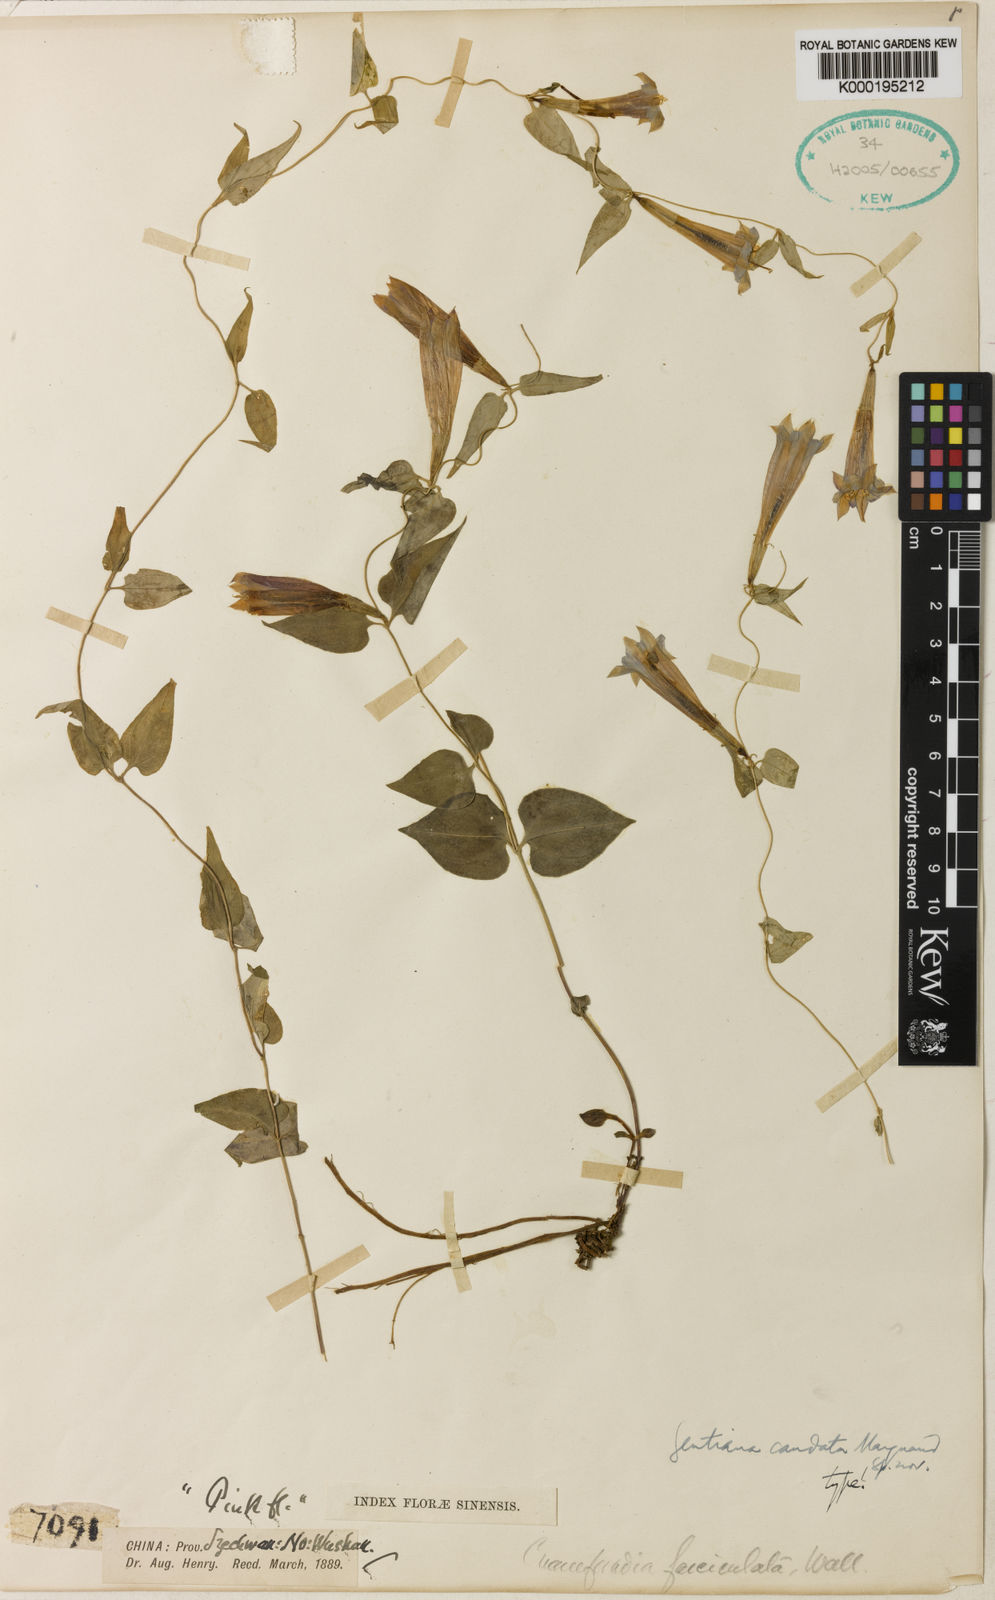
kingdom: Plantae
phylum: Tracheophyta
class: Magnoliopsida
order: Gentianales
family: Gentianaceae
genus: Tripterospermum
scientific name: Tripterospermum discoideum
